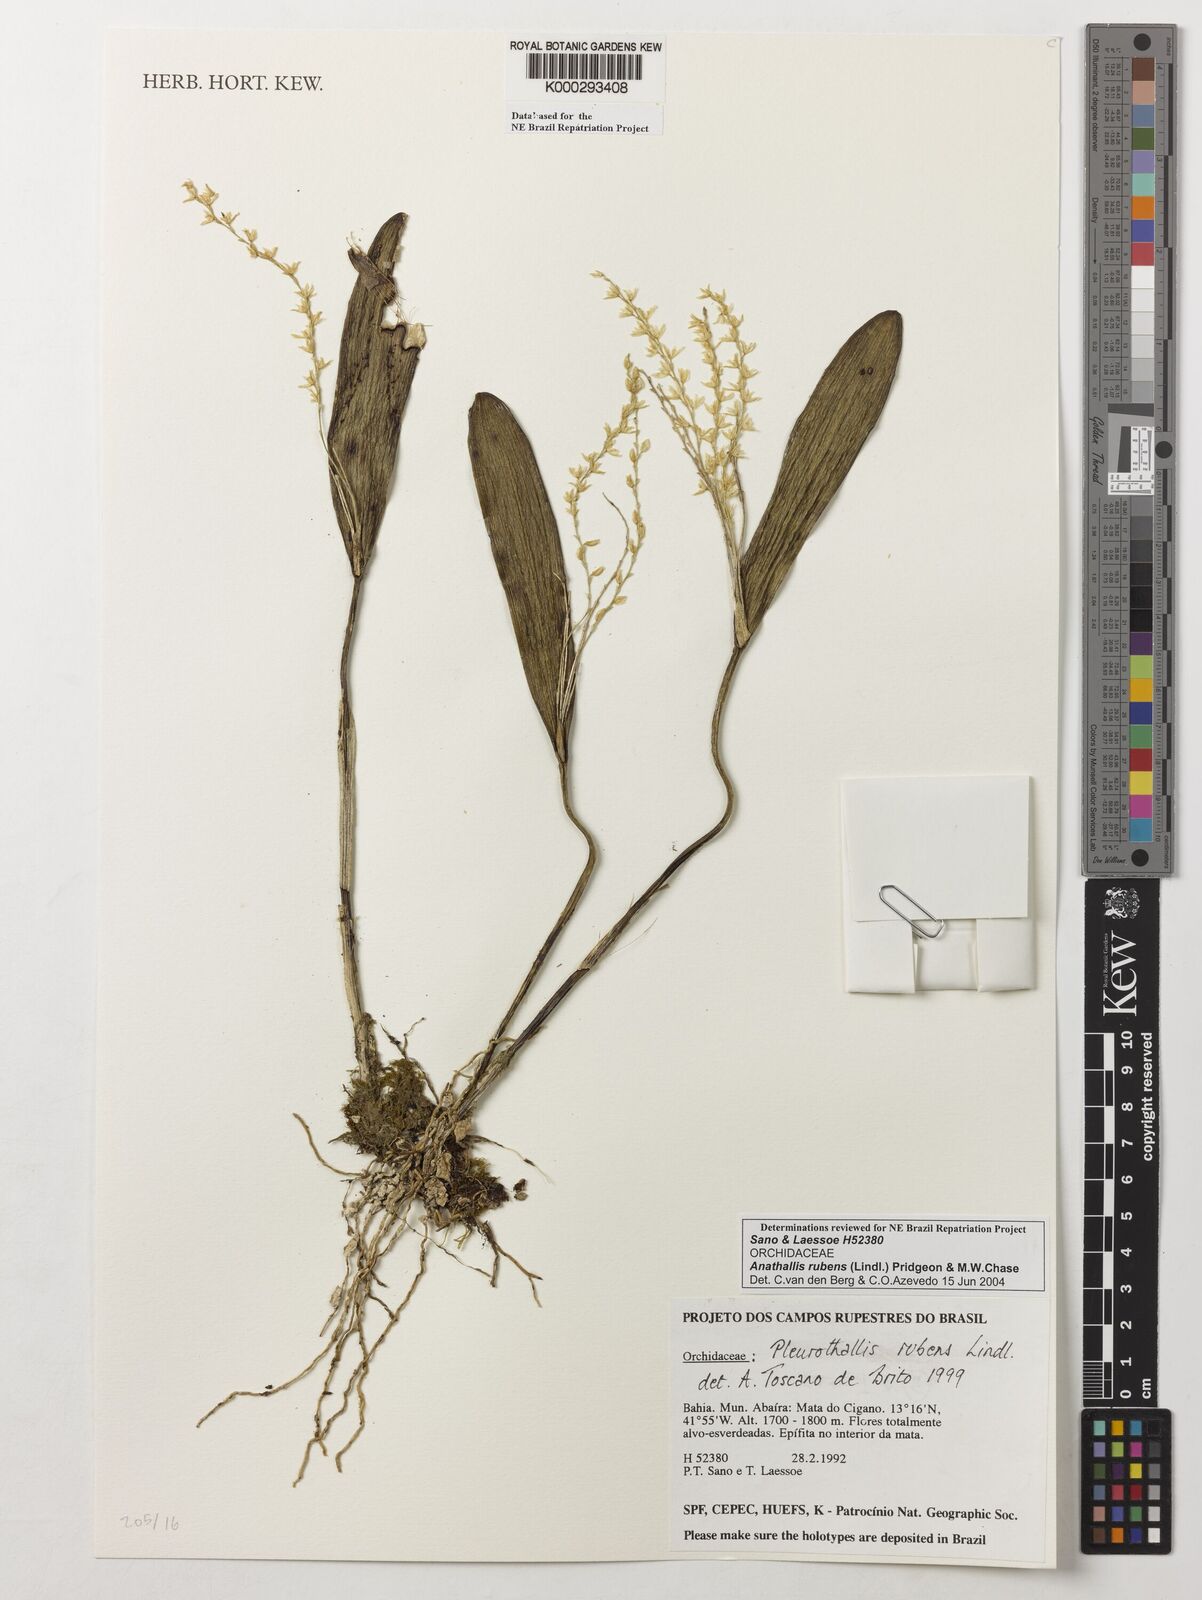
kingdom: Plantae
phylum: Tracheophyta
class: Liliopsida
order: Asparagales
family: Orchidaceae
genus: Stelis
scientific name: Stelis montserratii
